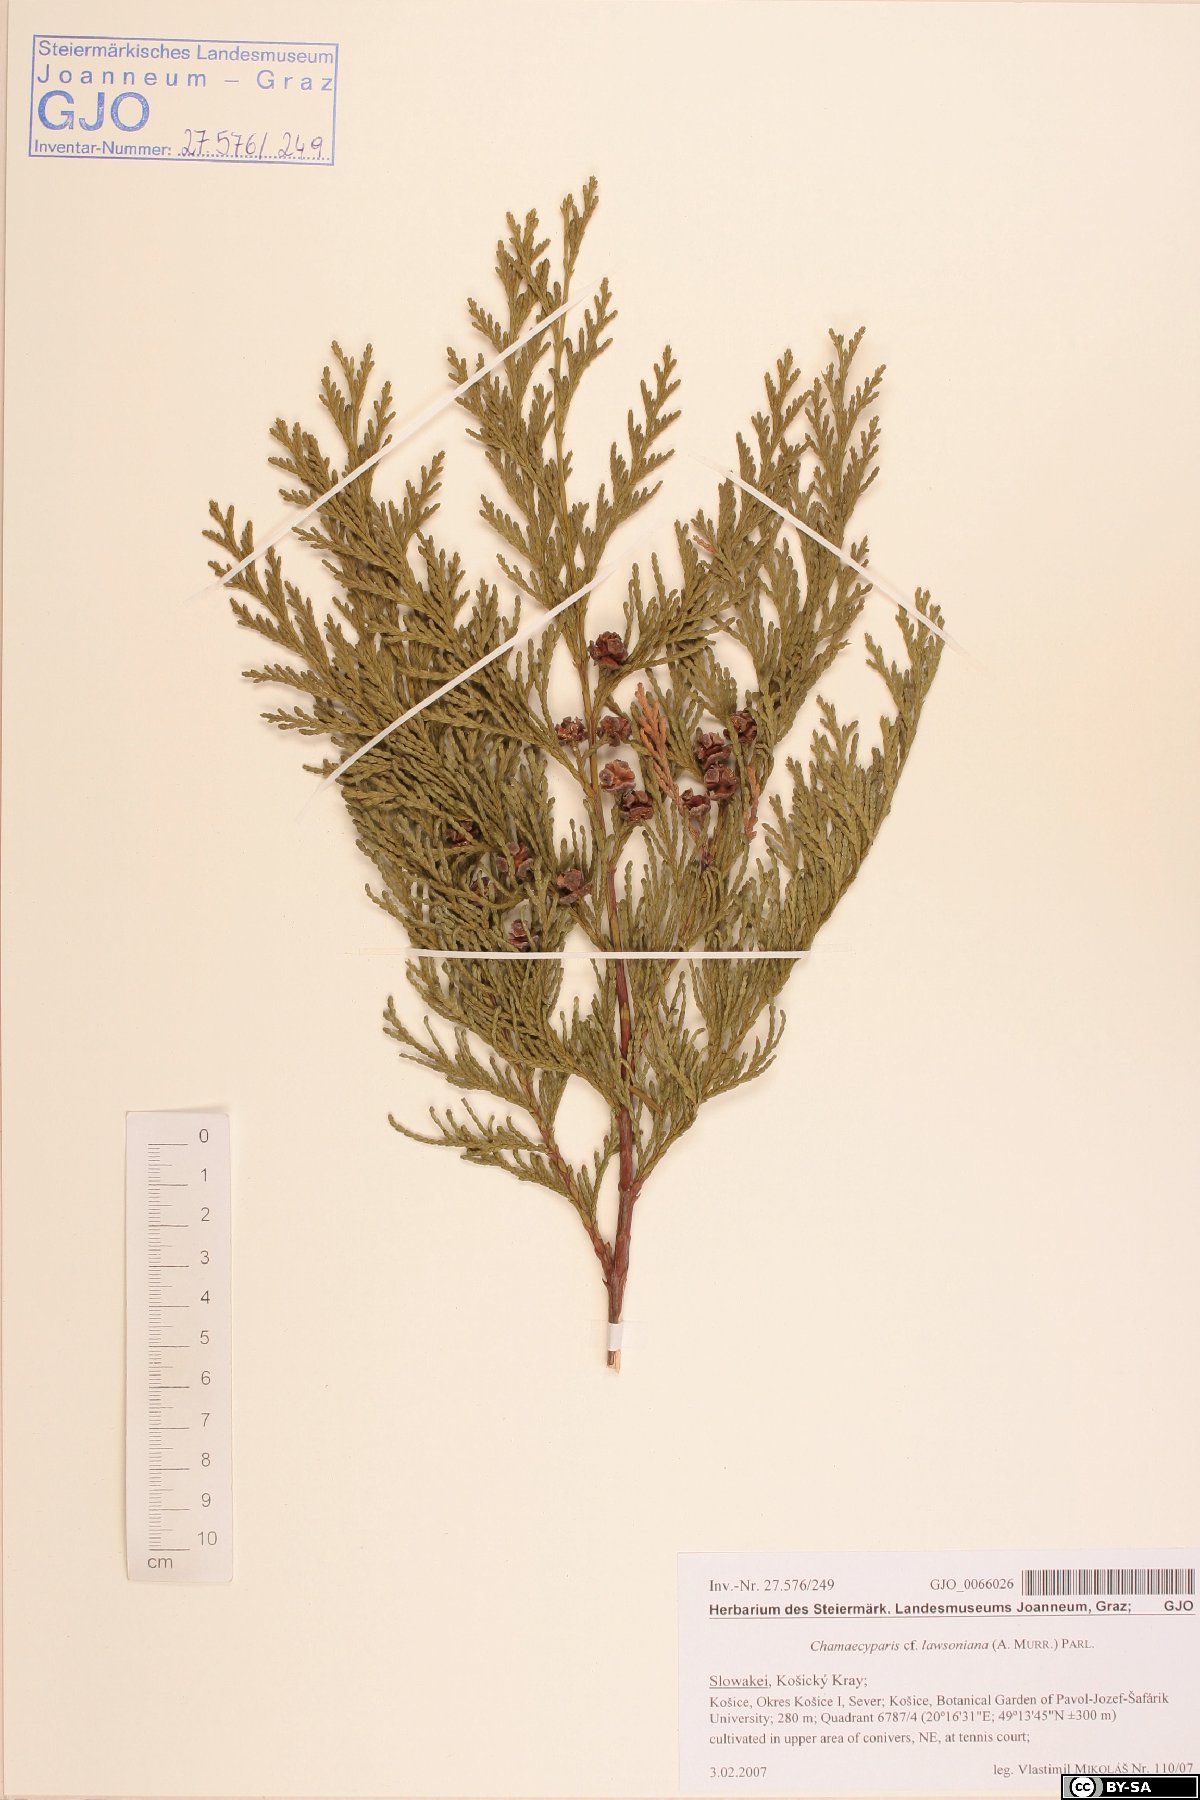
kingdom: Plantae
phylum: Tracheophyta
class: Pinopsida
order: Pinales
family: Cupressaceae
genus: Chamaecyparis
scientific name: Chamaecyparis lawsoniana
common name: Lawson's cypress
